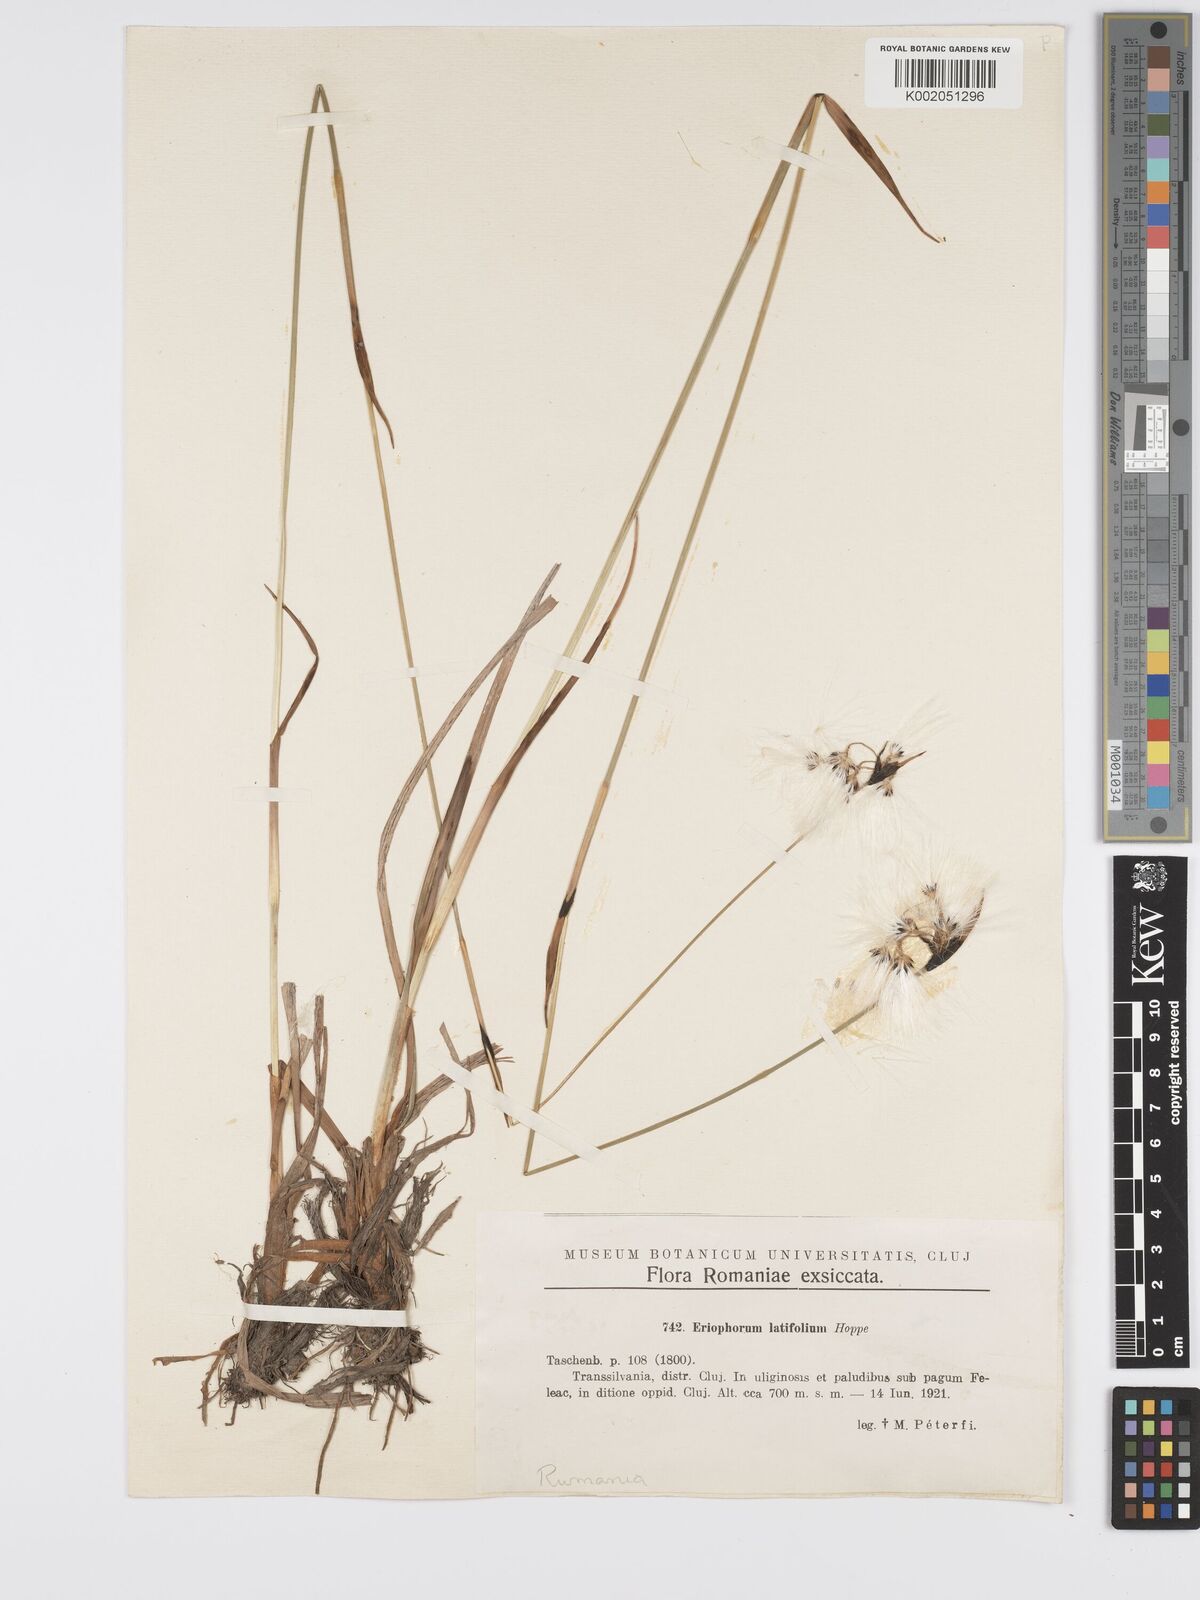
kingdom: Plantae
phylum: Tracheophyta
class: Liliopsida
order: Poales
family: Cyperaceae
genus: Eriophorum
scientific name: Eriophorum latifolium
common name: Broad-leaved cottongrass
